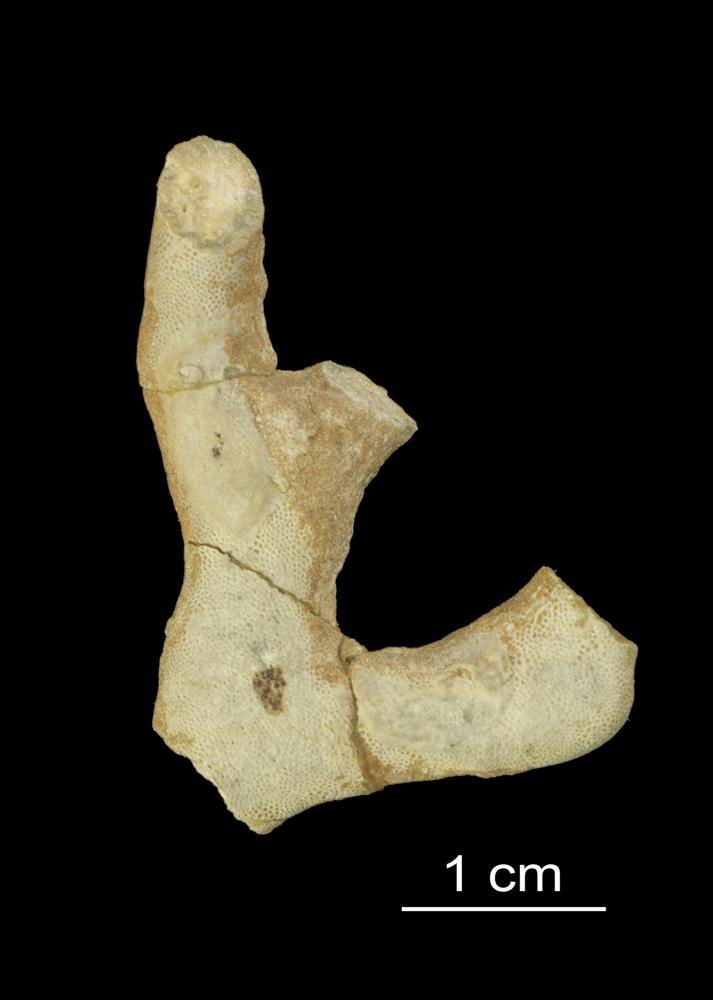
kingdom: Animalia
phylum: Bryozoa
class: Stenolaemata
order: Trepostomatida
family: Monticuliporidae
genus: Homotrypa
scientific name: Homotrypa
